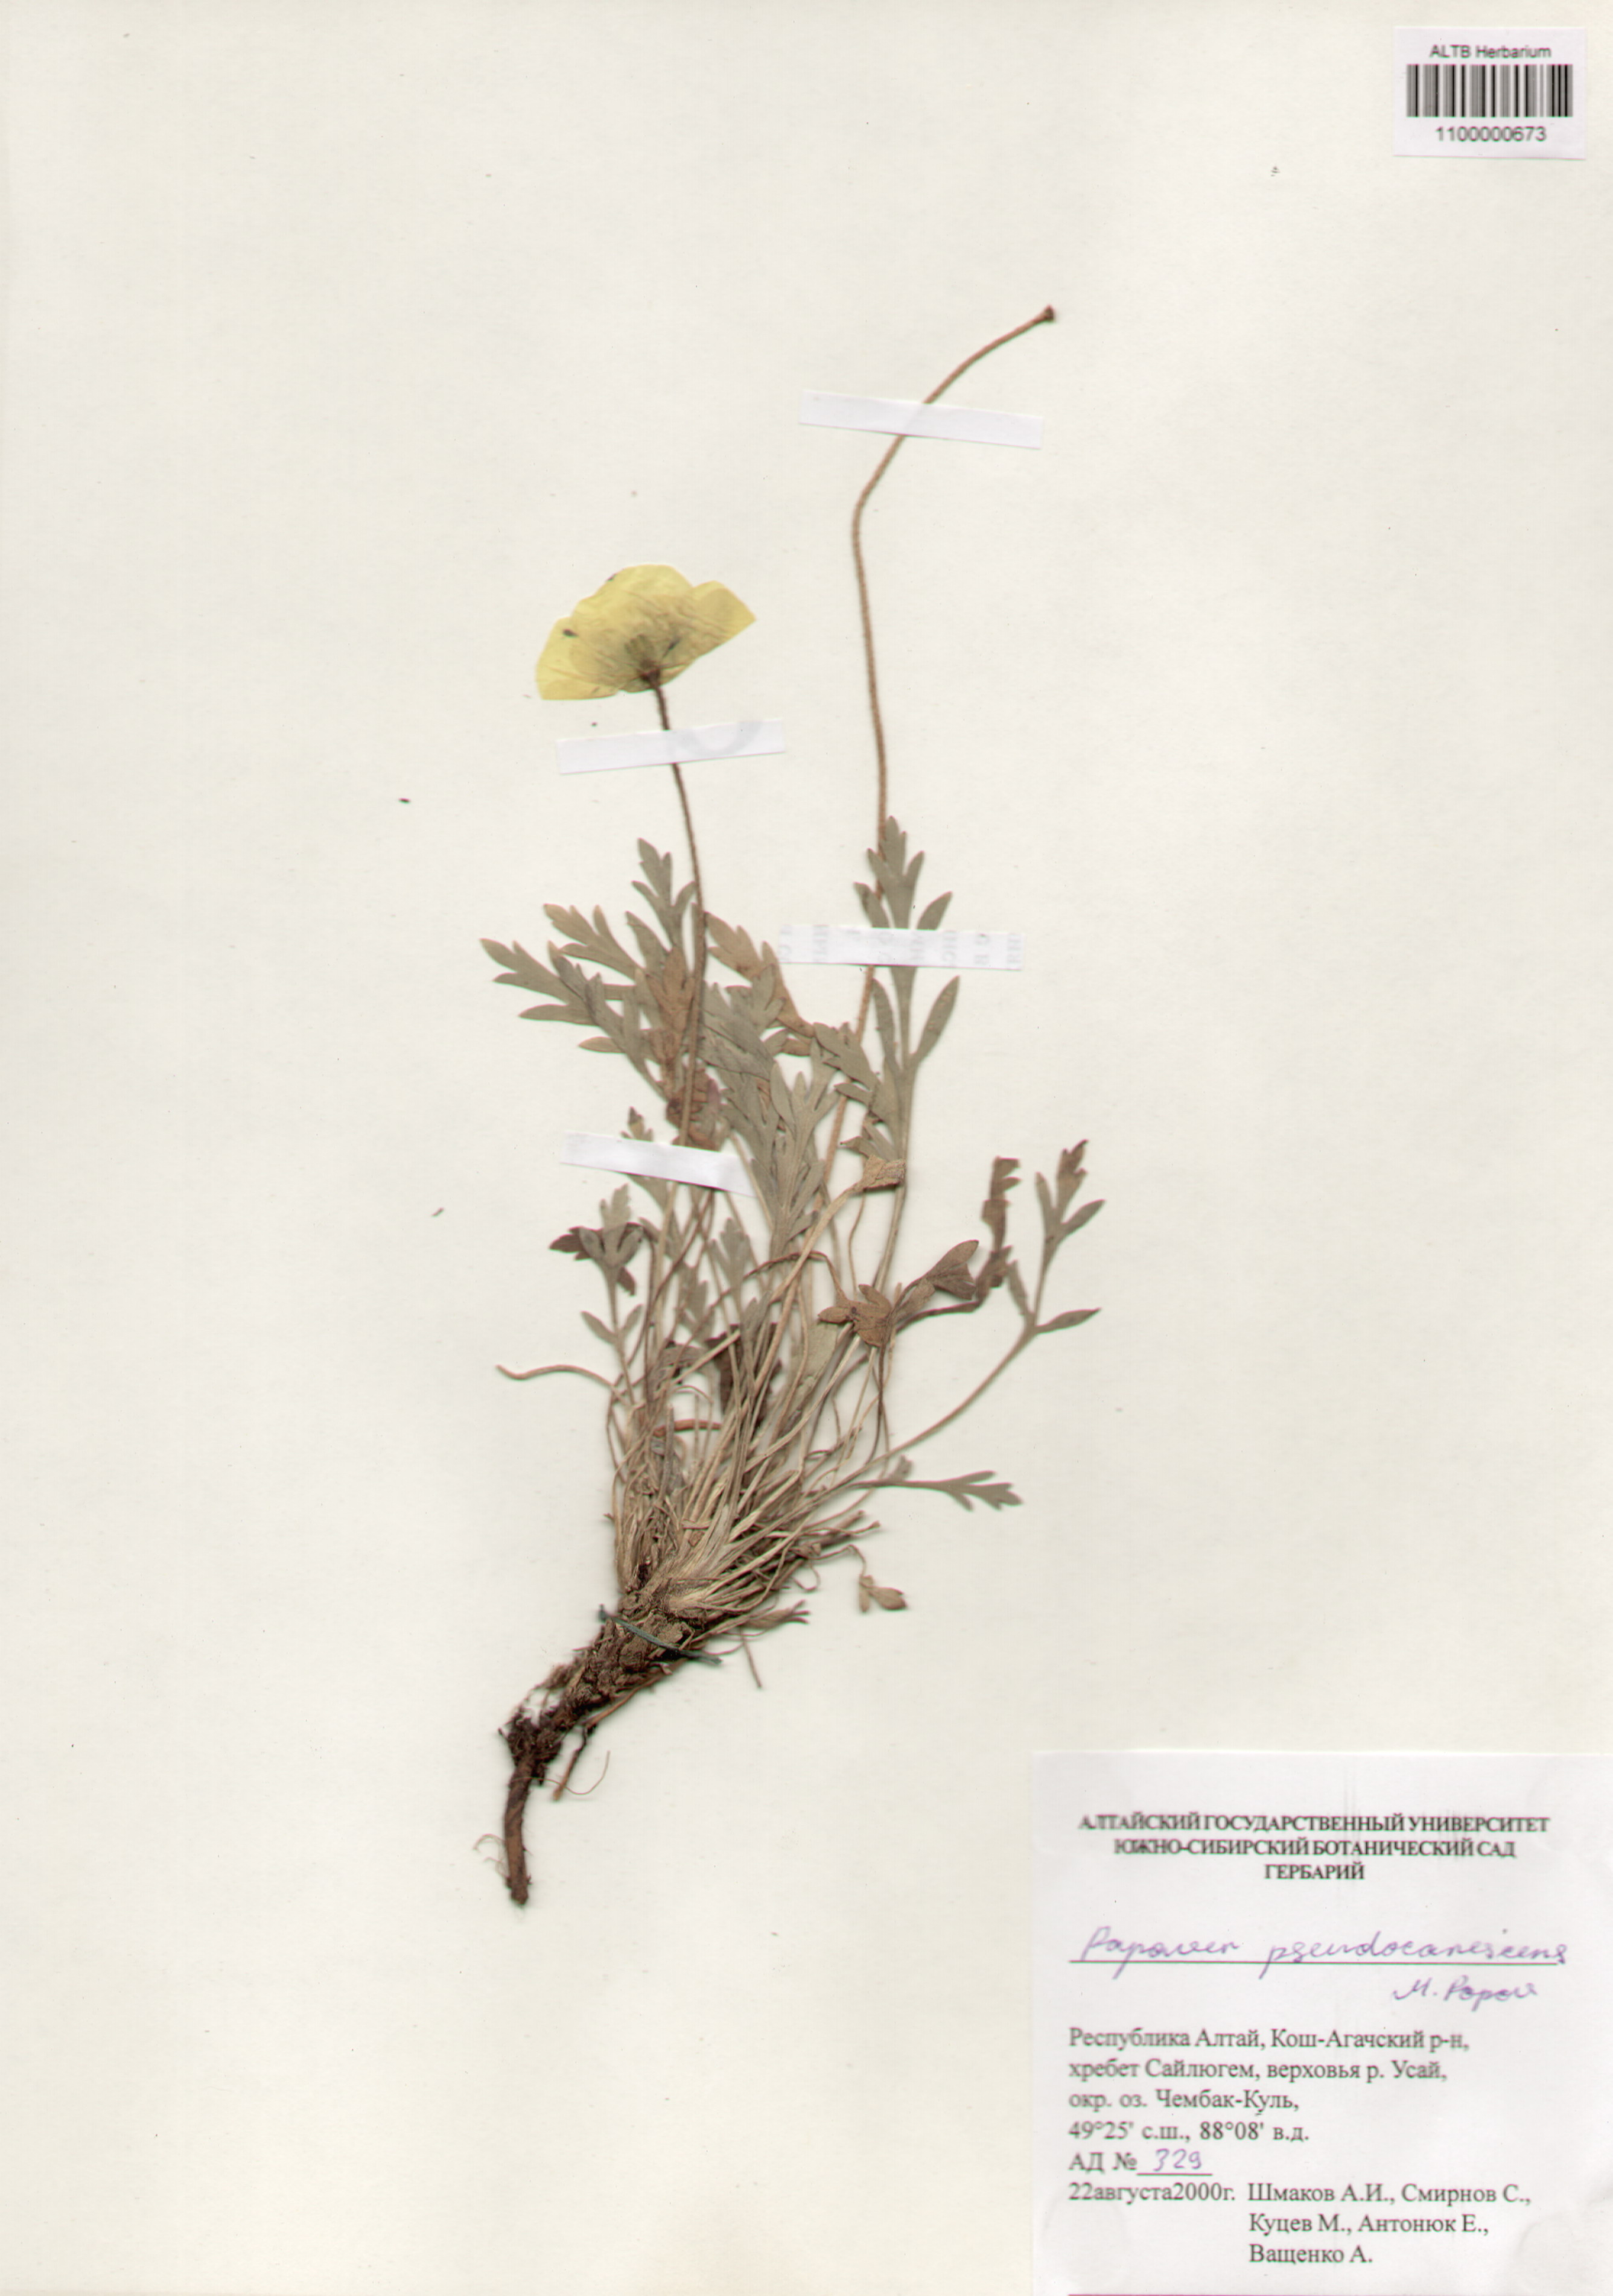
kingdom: Plantae
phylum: Tracheophyta
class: Magnoliopsida
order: Ranunculales
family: Papaveraceae
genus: Papaver
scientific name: Papaver canescens
